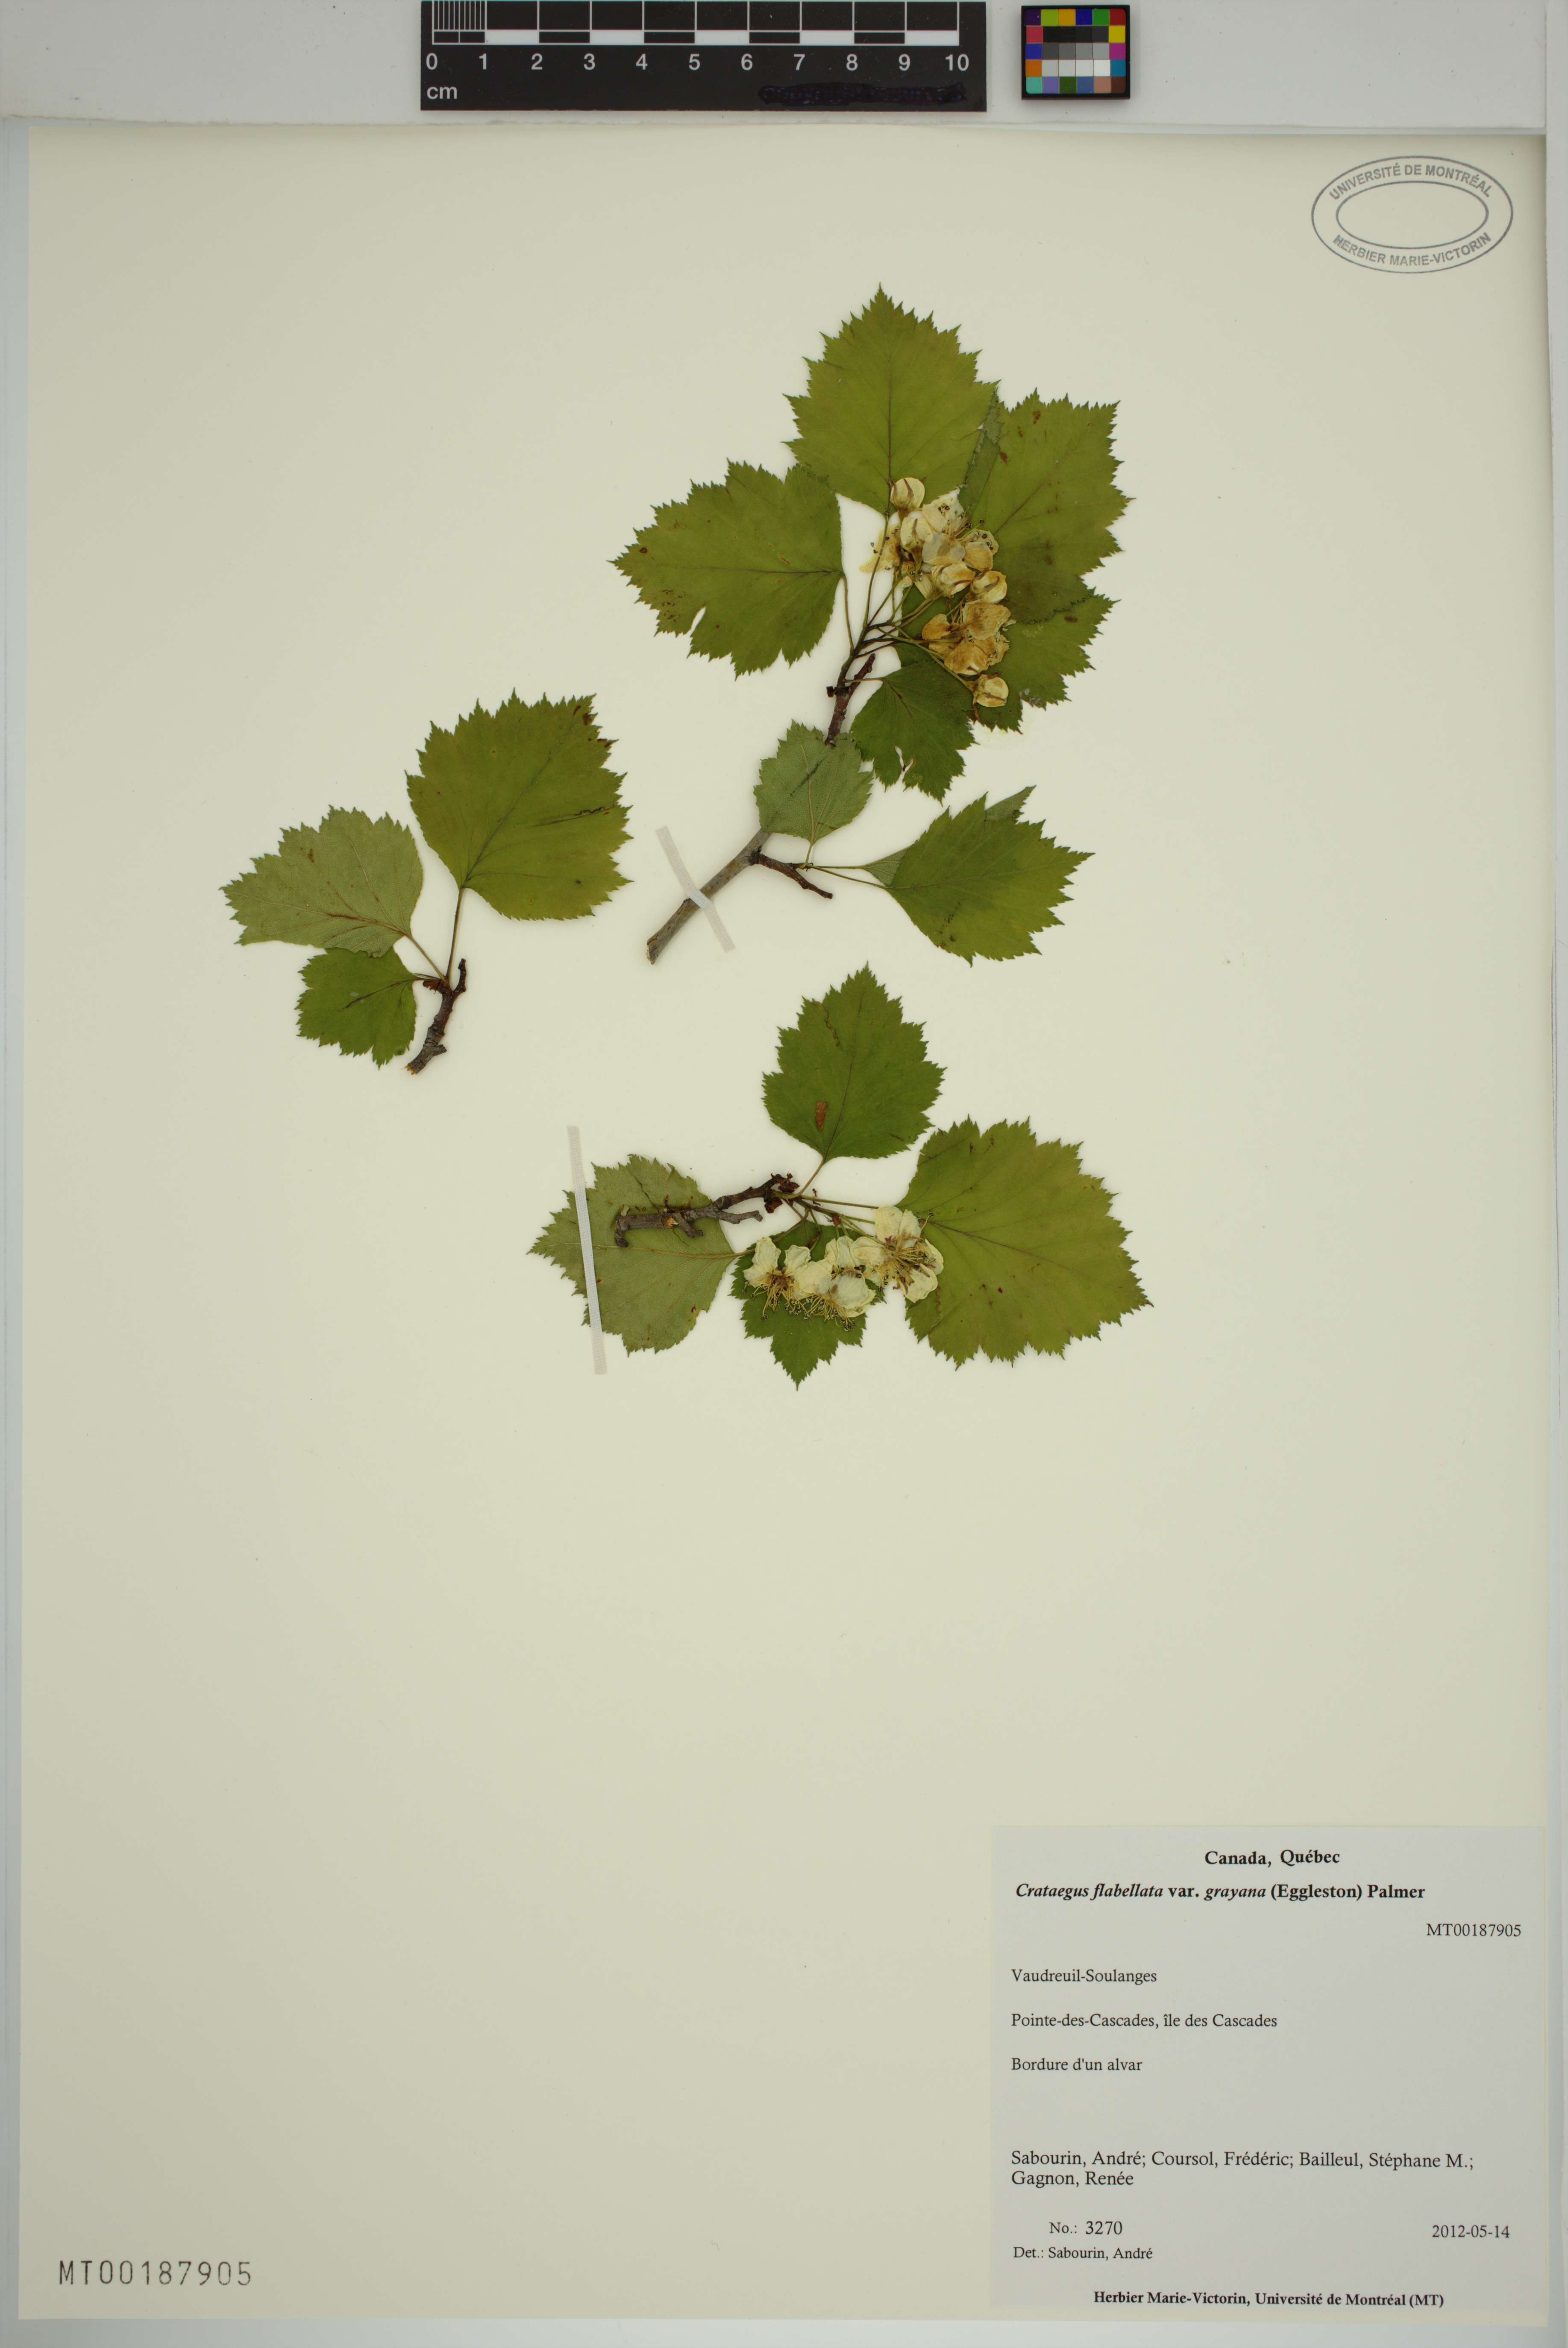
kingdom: Plantae
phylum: Tracheophyta
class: Magnoliopsida
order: Rosales
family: Rosaceae
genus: Crataegus
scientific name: Crataegus schuettei
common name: Schuette's hawthorn
